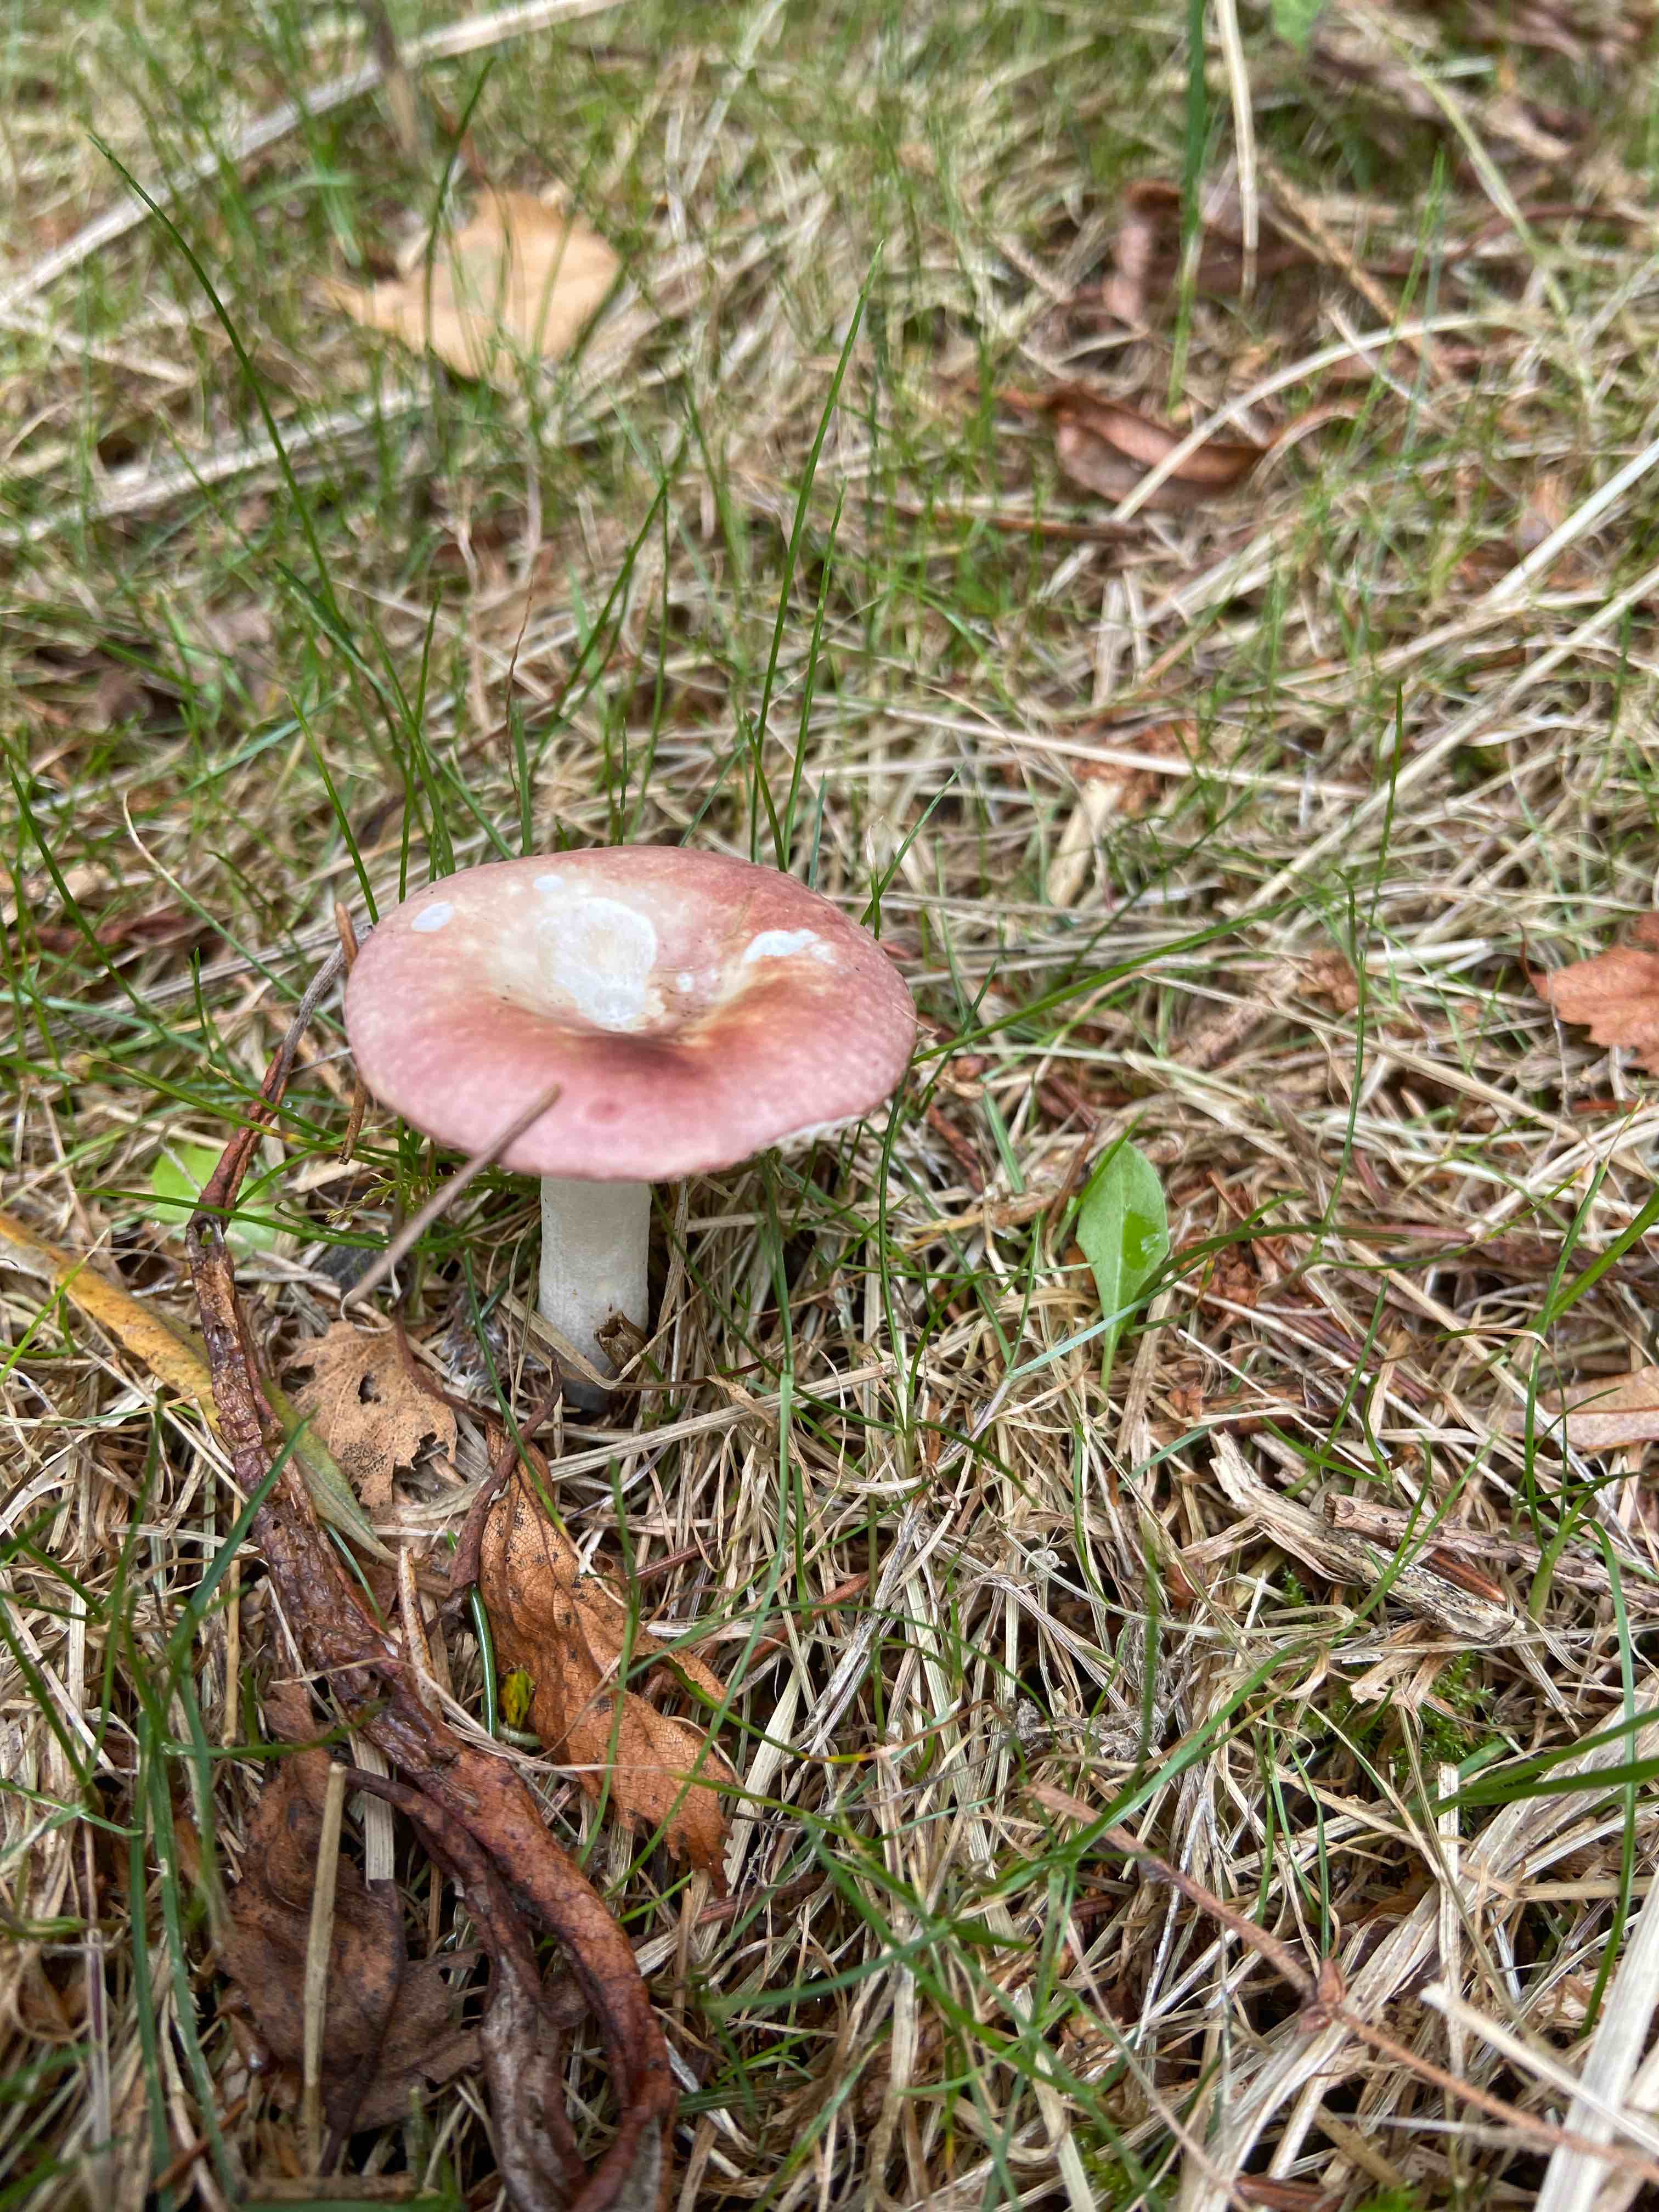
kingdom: Fungi
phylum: Basidiomycota
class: Agaricomycetes
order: Russulales
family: Russulaceae
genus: Russula
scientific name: Russula
